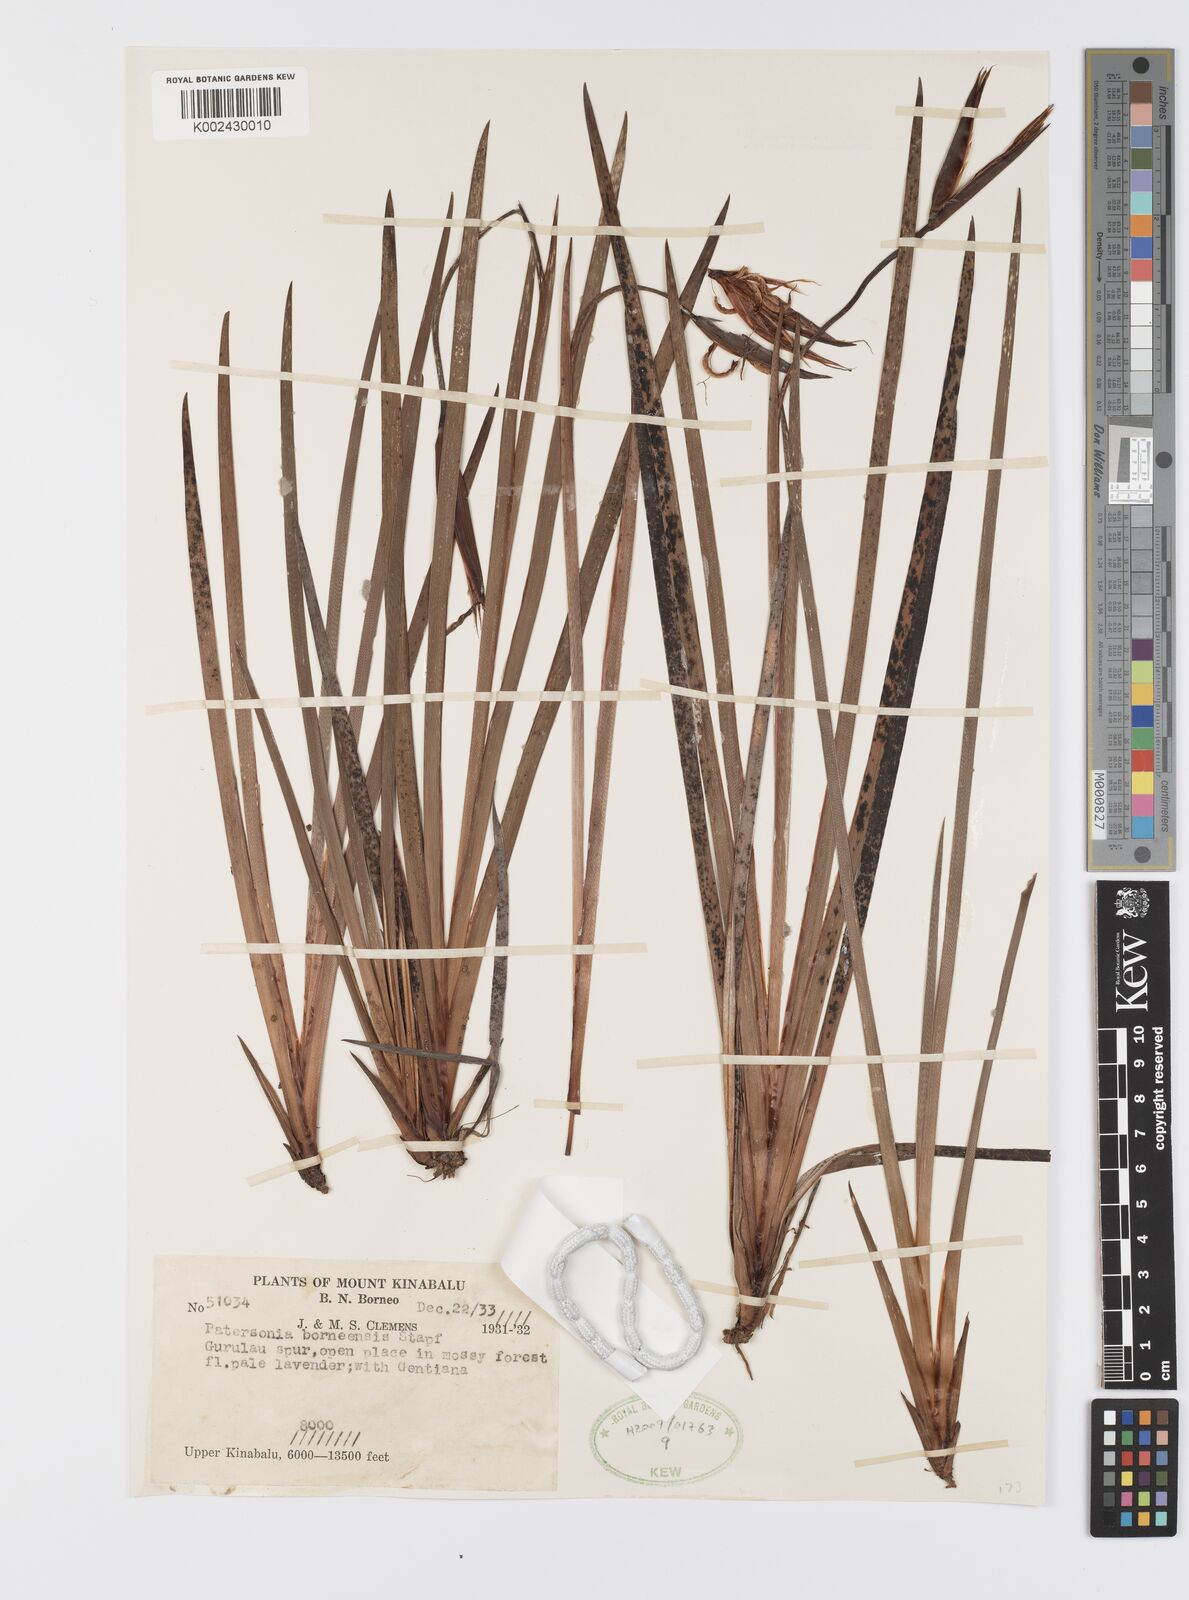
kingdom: Plantae
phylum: Tracheophyta
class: Liliopsida
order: Asparagales
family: Iridaceae
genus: Patersonia
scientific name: Patersonia borneensis
